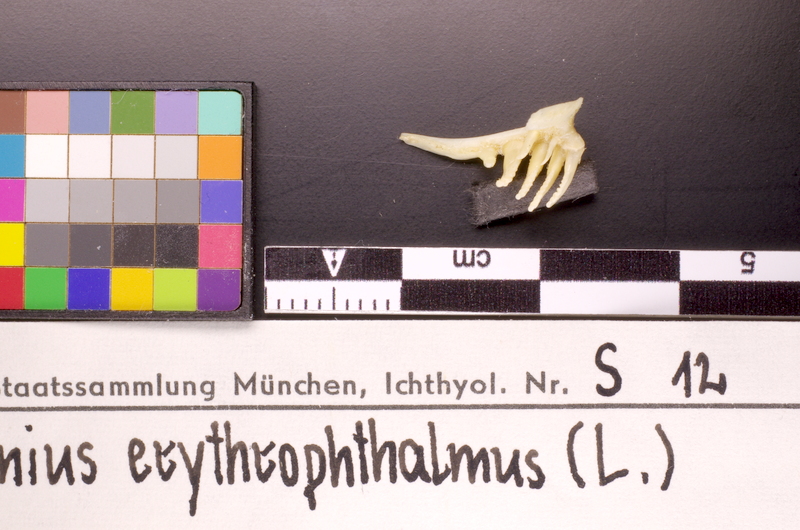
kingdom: Animalia
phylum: Chordata
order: Cypriniformes
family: Cyprinidae
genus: Scardinius
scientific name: Scardinius erythrophthalmus
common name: Rudd
